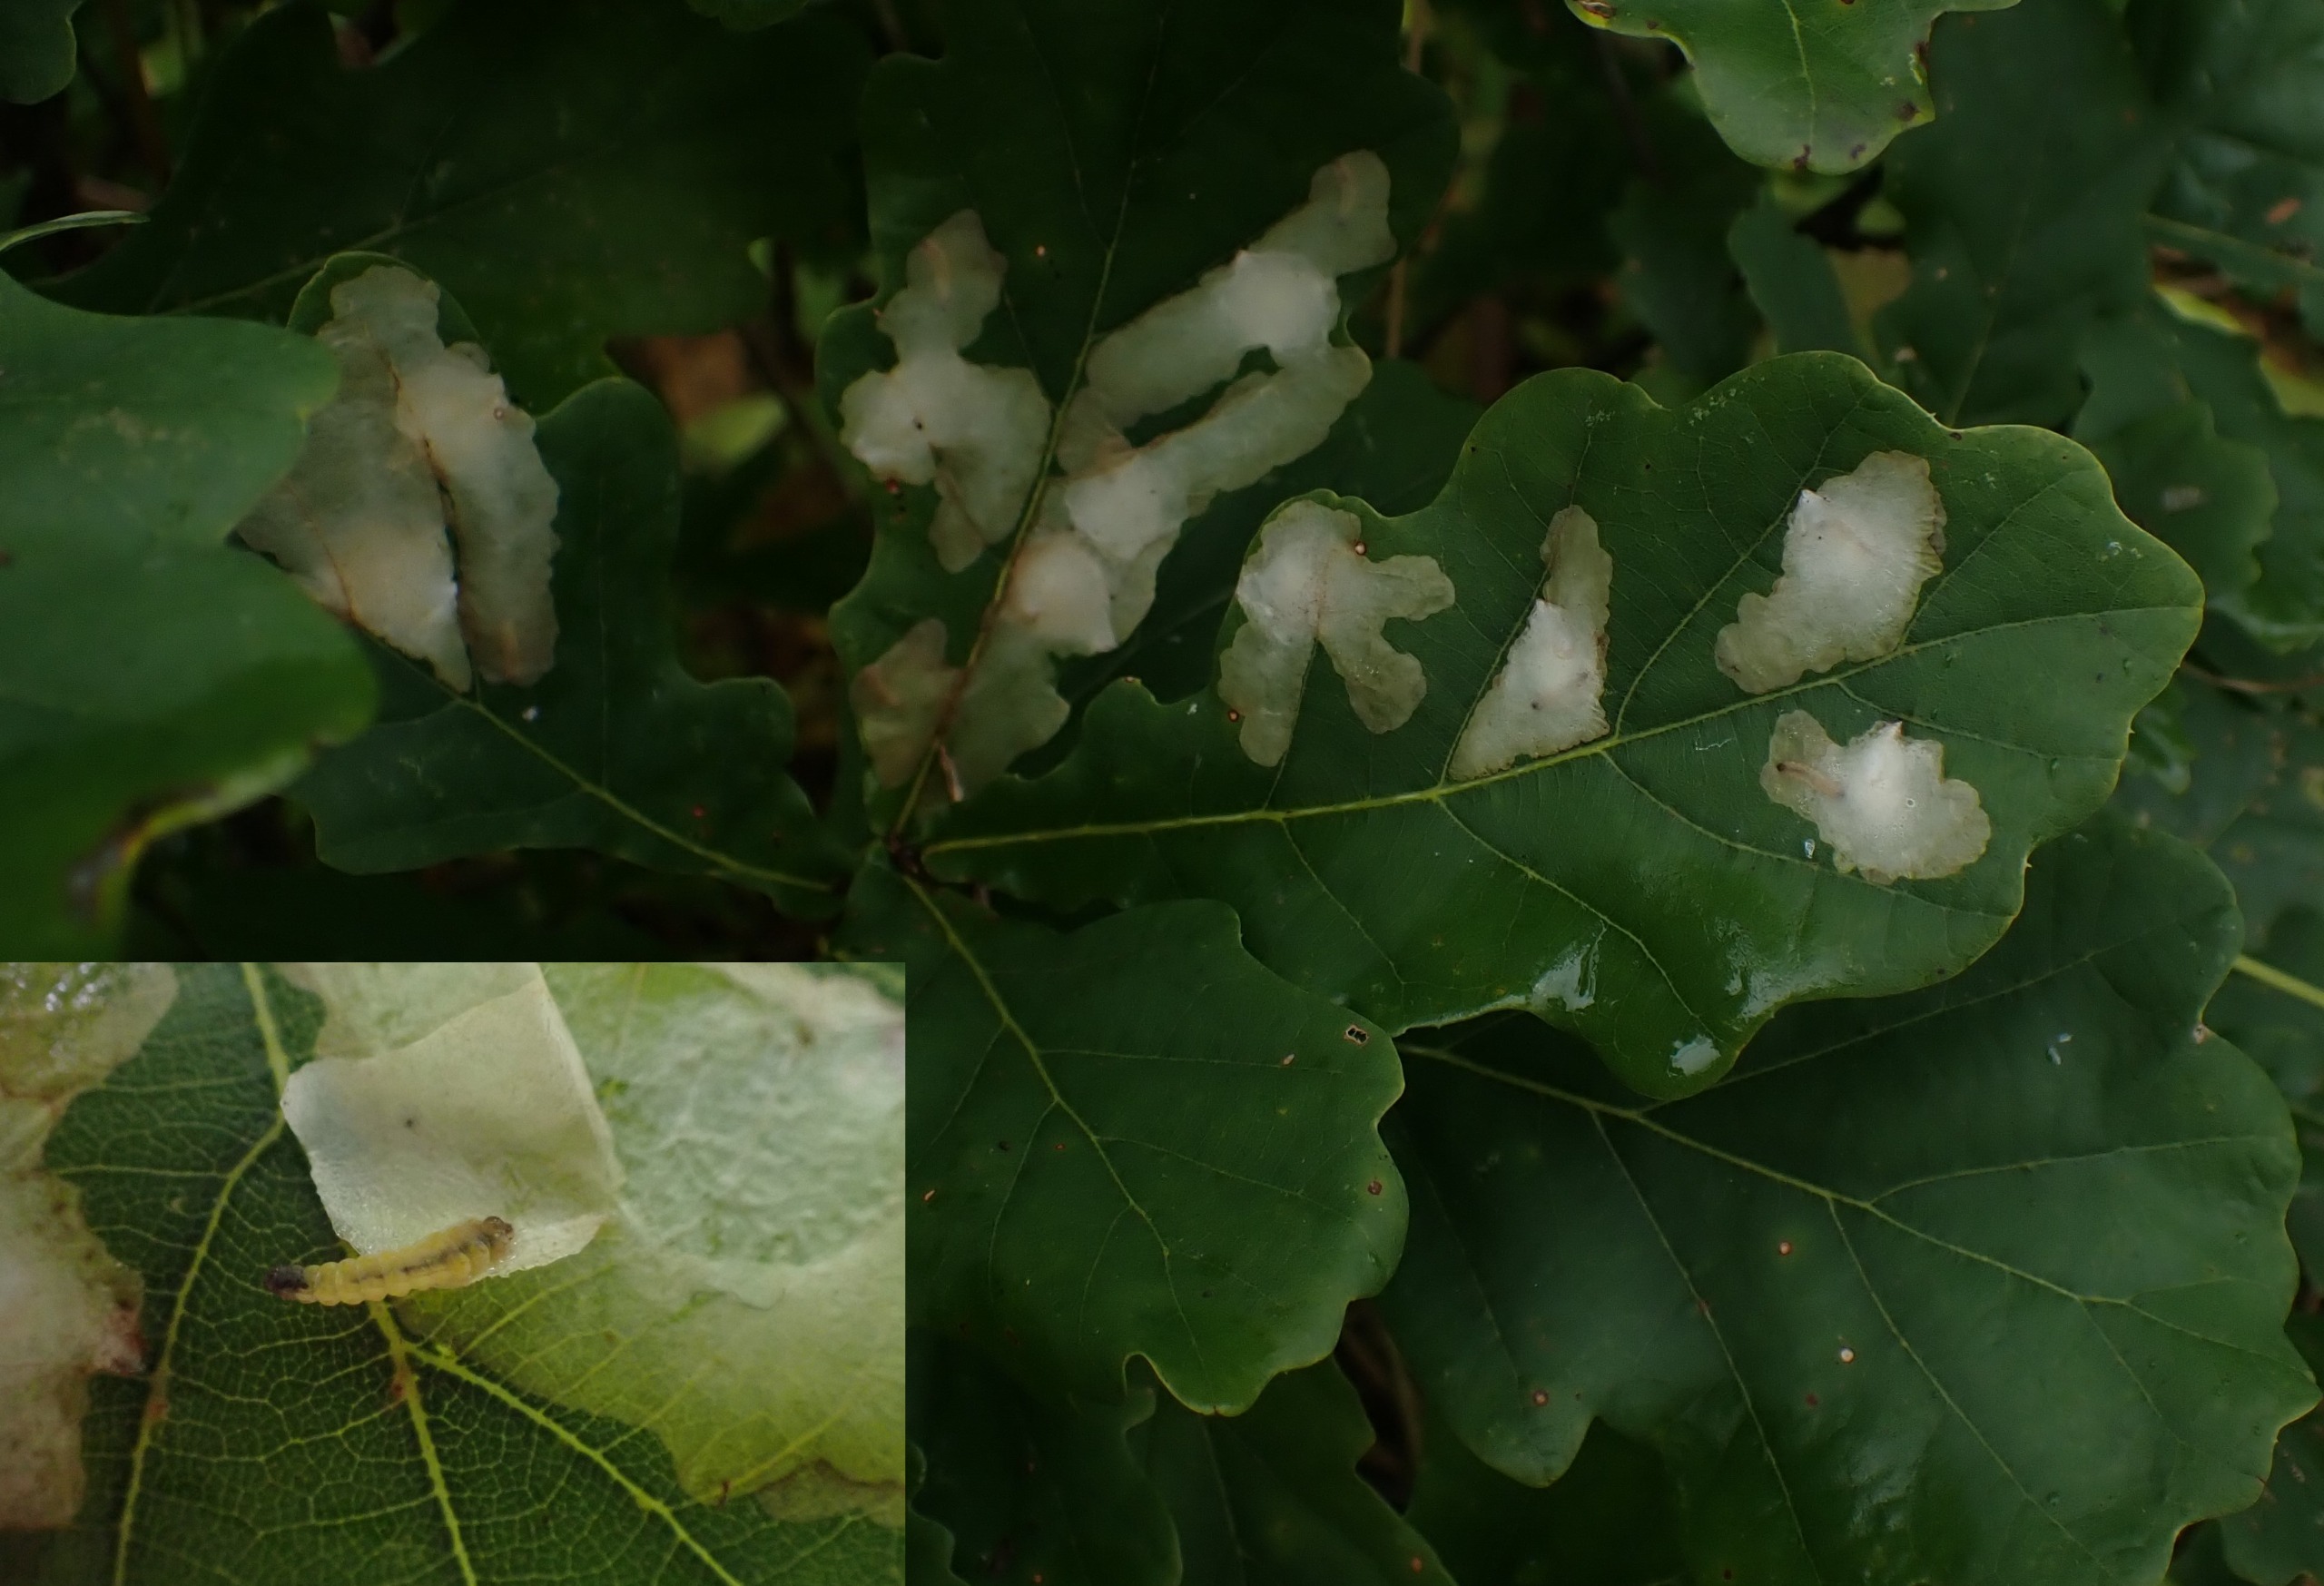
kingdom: Animalia
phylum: Arthropoda
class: Insecta
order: Lepidoptera
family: Tischeriidae
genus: Tischeria
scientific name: Tischeria ekebladella
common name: Egepandeduskmøl
